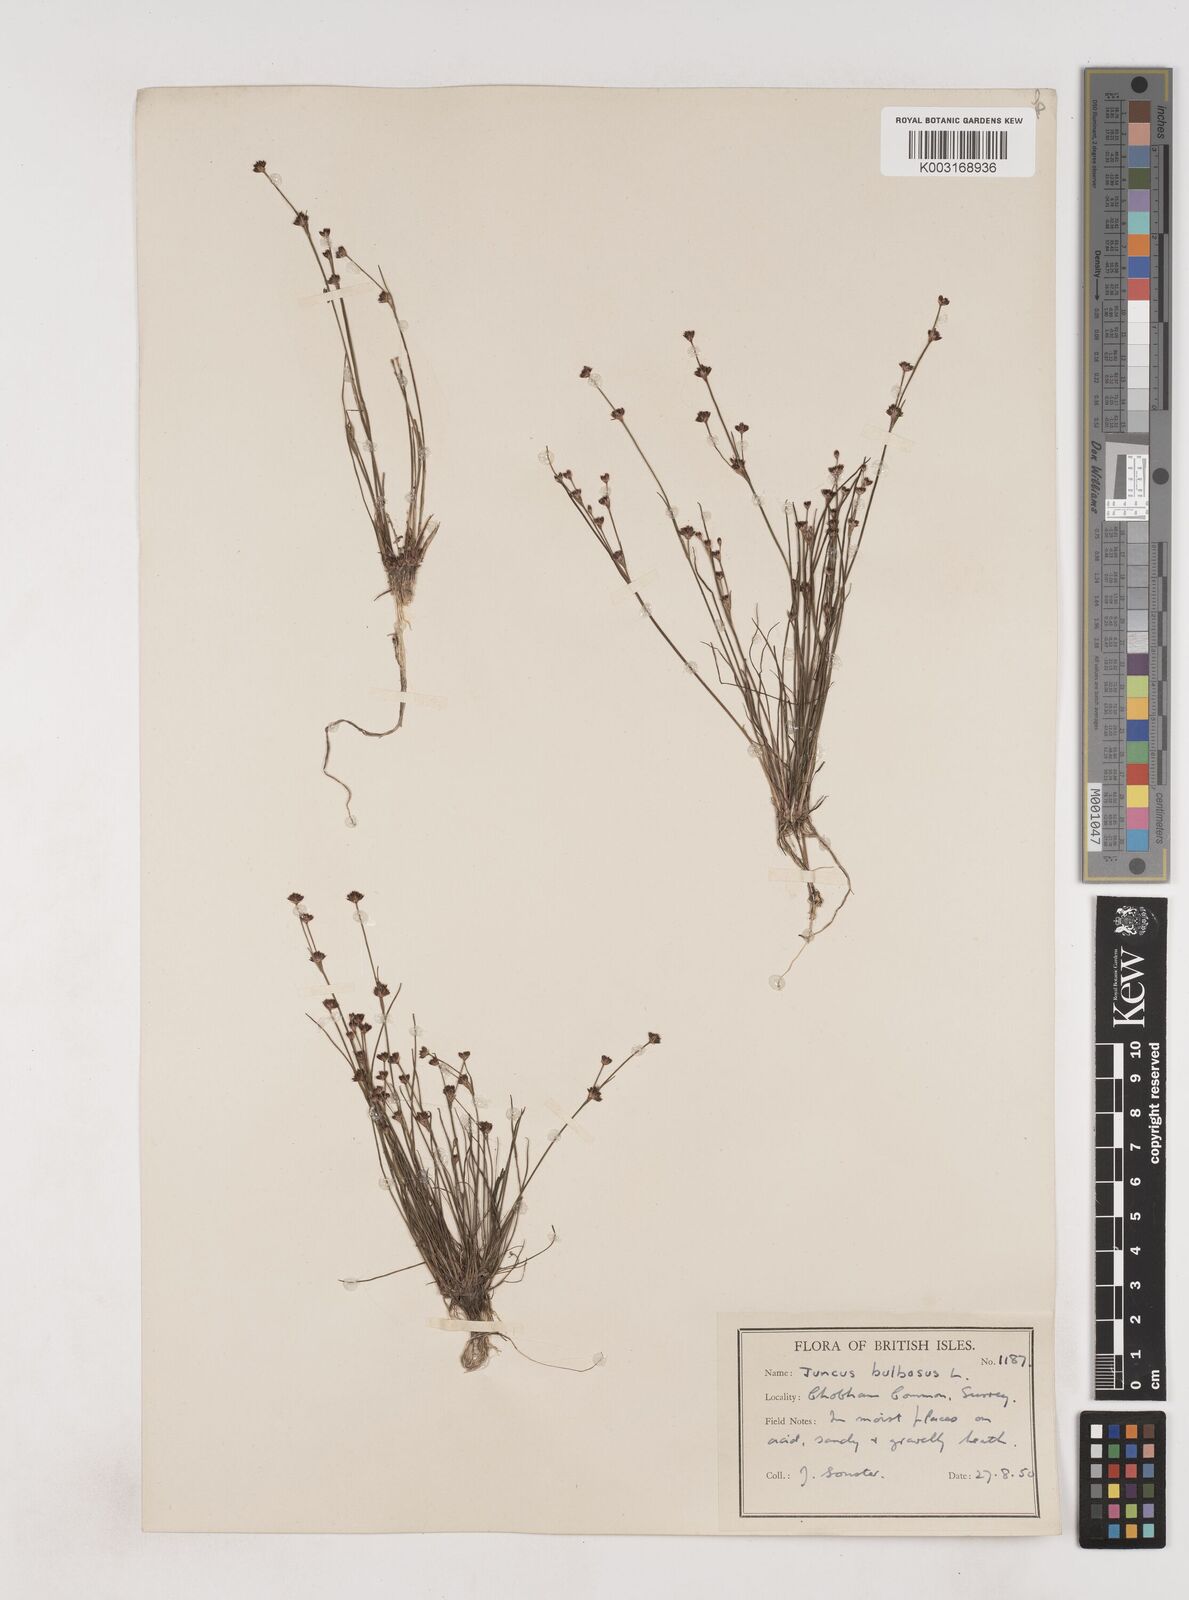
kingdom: Plantae
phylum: Tracheophyta
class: Liliopsida
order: Poales
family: Juncaceae
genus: Juncus
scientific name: Juncus bulbosus
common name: Bulbous rush
